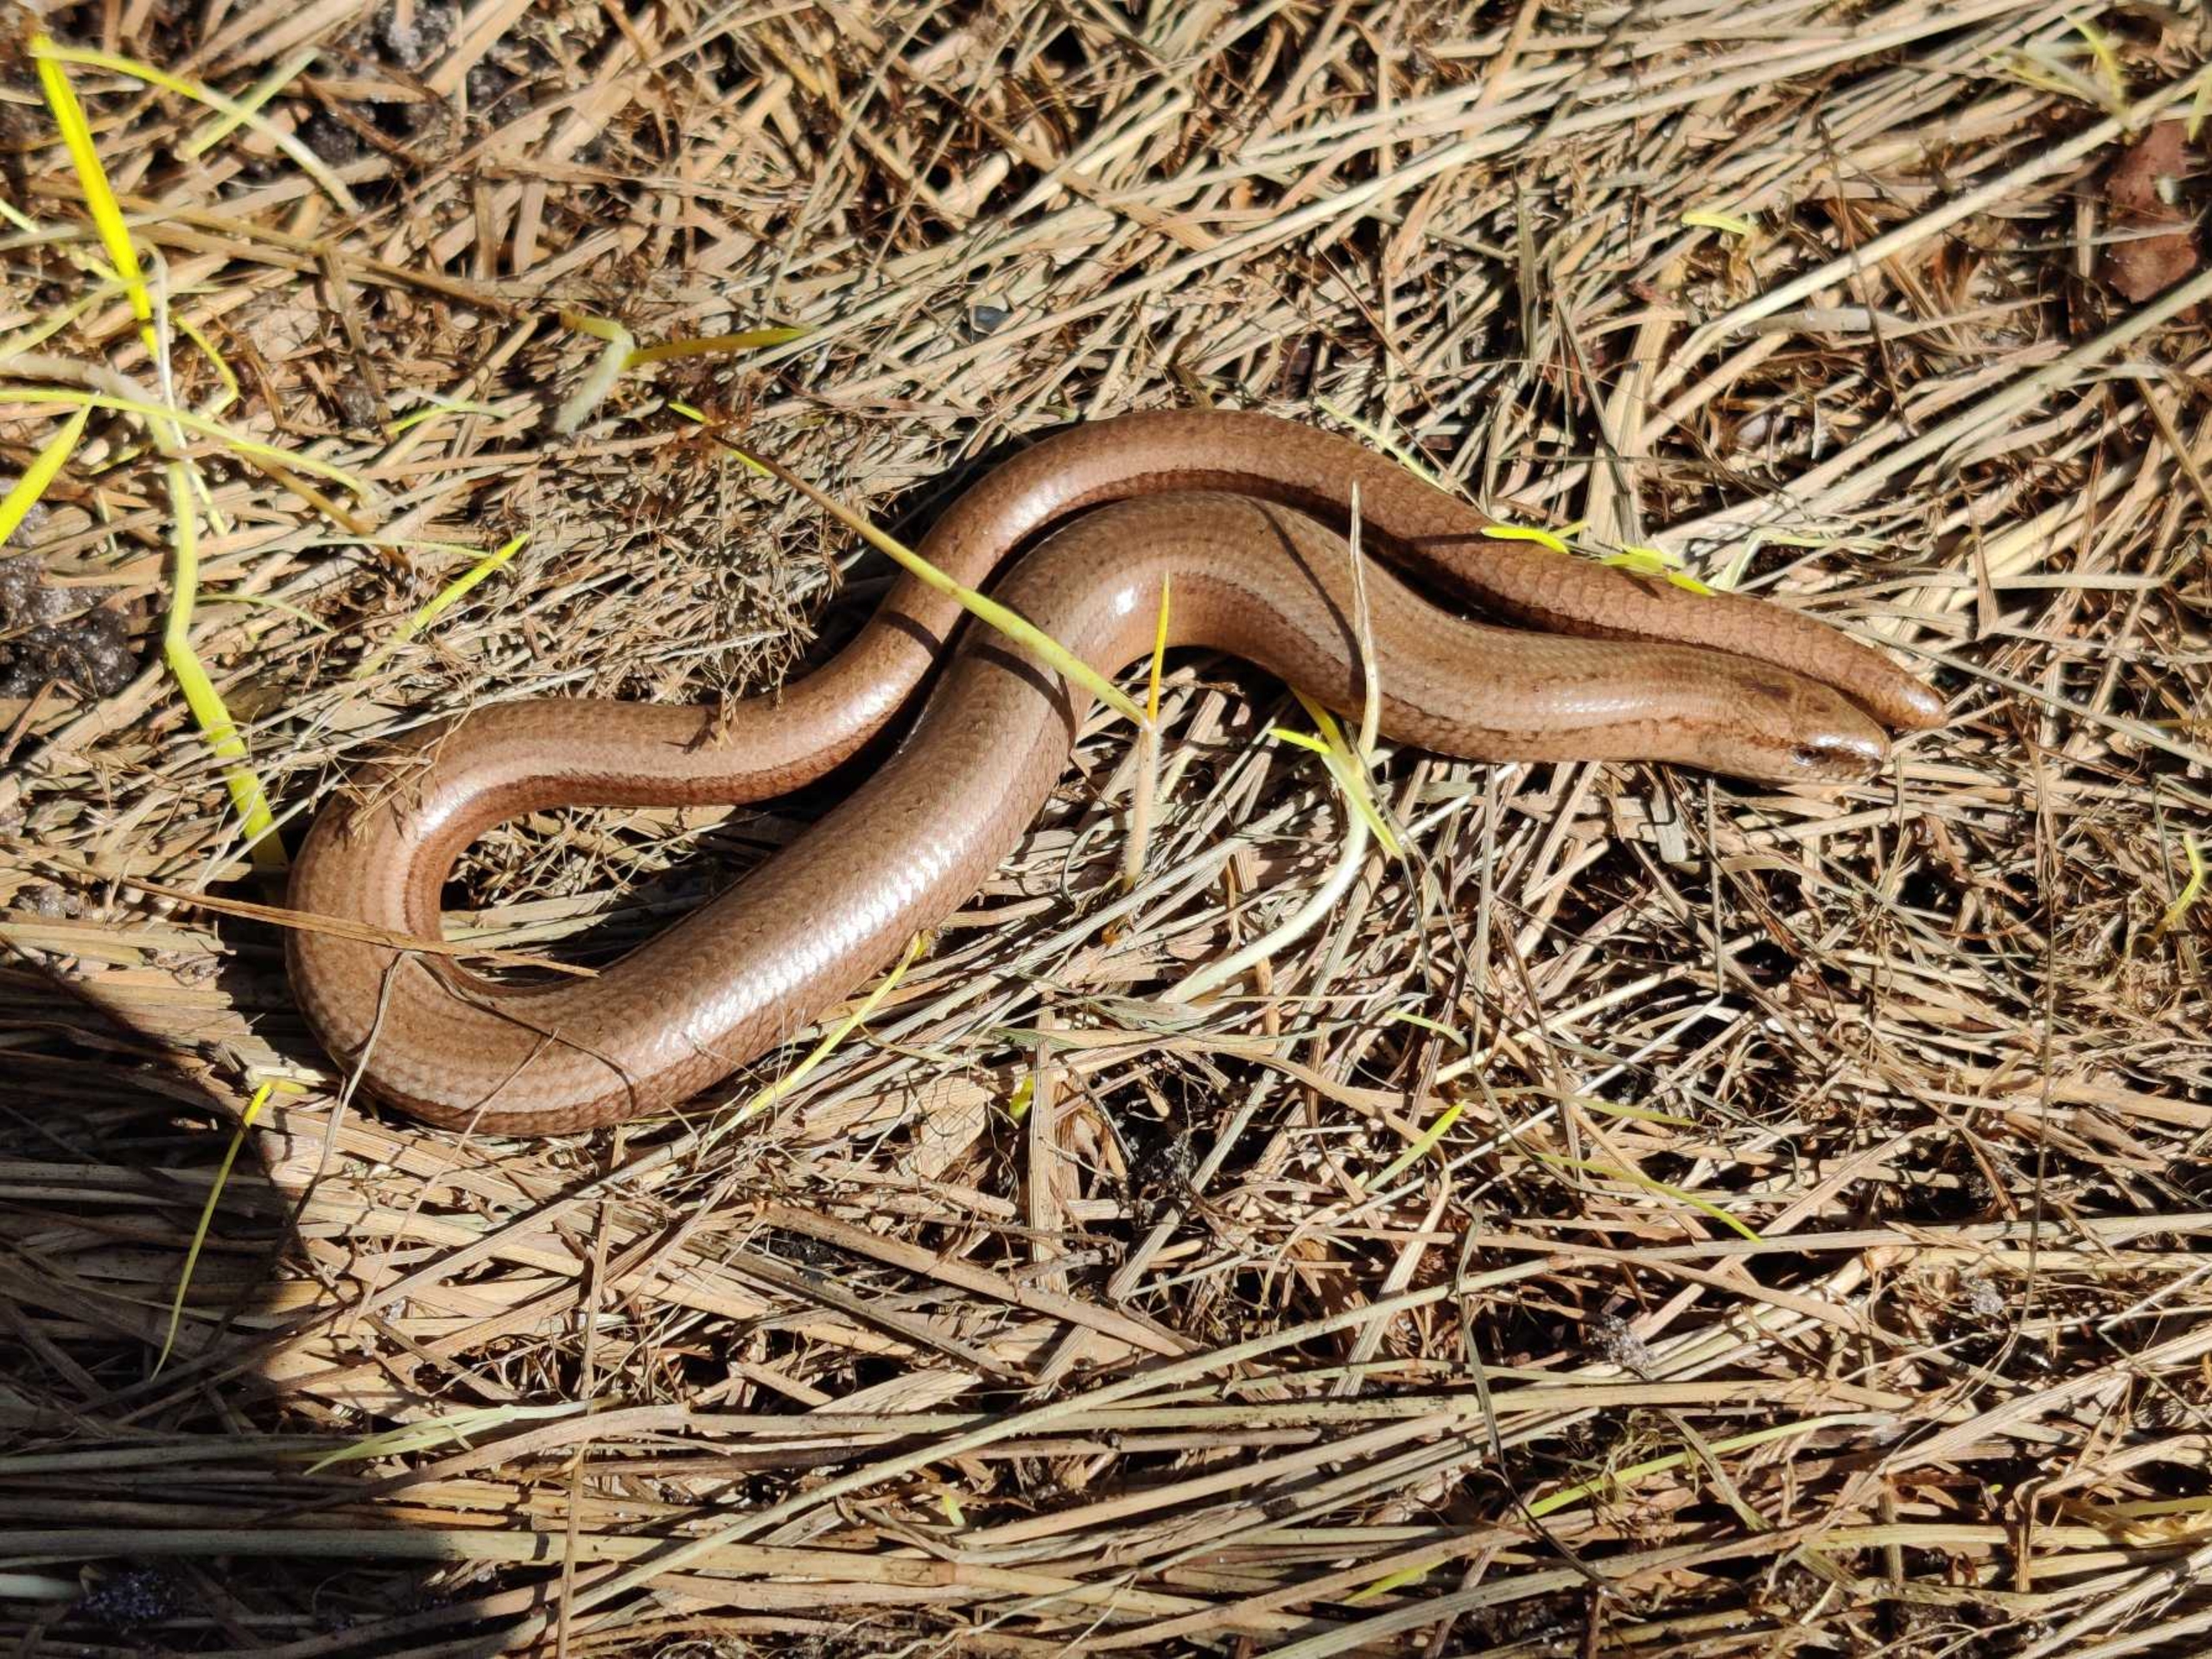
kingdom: Animalia
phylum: Chordata
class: Squamata
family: Anguidae
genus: Anguis
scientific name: Anguis fragilis
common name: Stålorm
